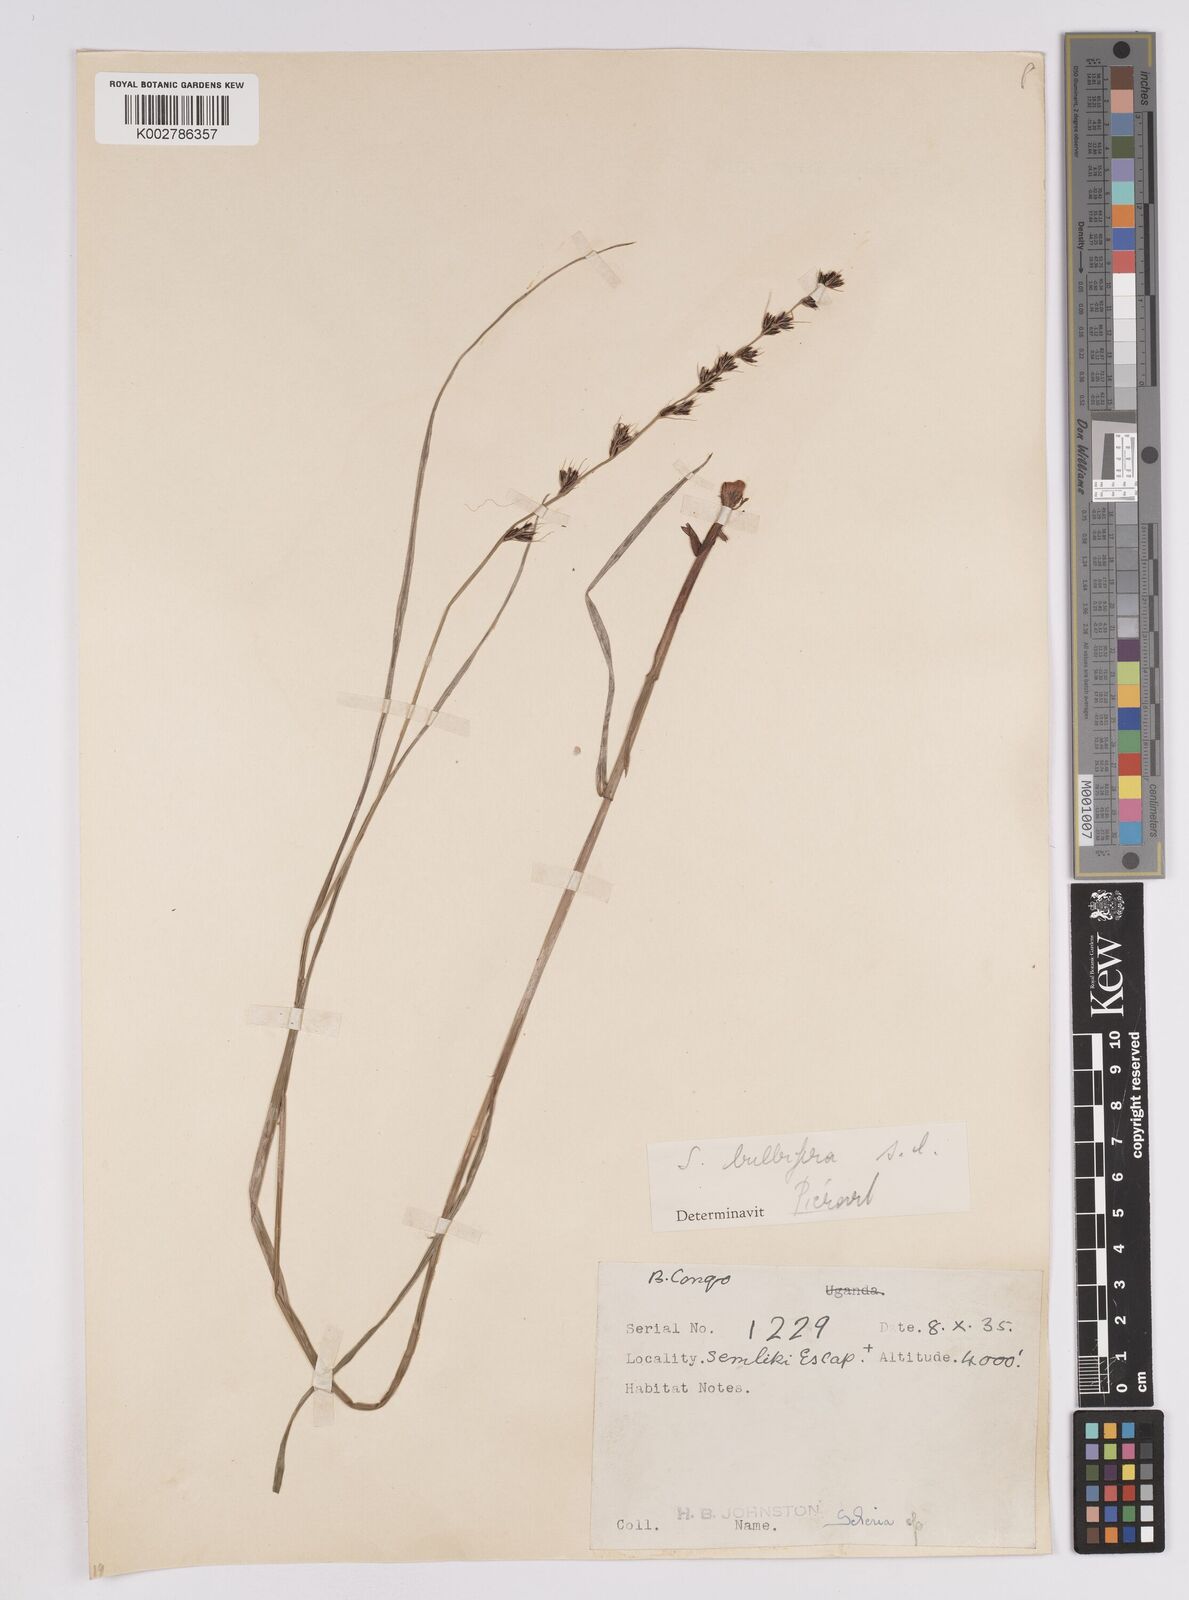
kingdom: Plantae
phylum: Tracheophyta
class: Liliopsida
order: Poales
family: Cyperaceae
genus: Scleria
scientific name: Scleria bulbifera
